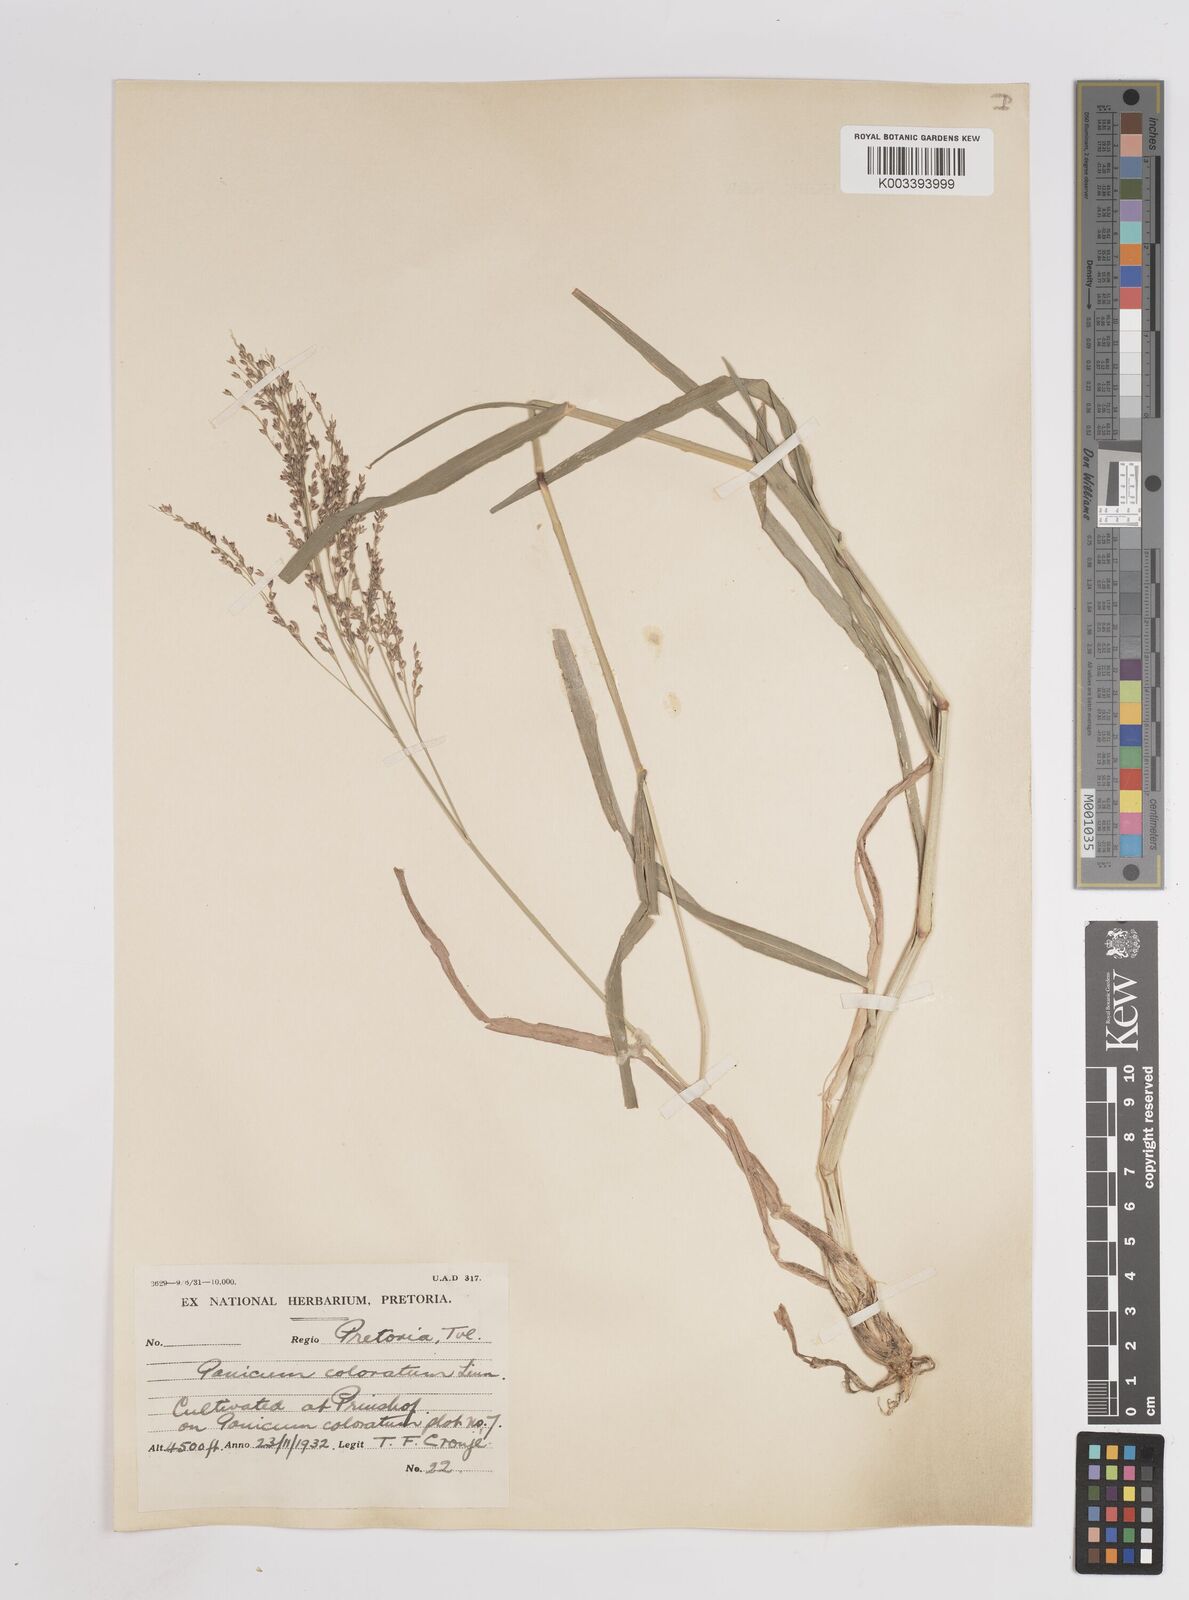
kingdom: Plantae
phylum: Tracheophyta
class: Liliopsida
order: Poales
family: Poaceae
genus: Panicum
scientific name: Panicum coloratum
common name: Kleingrass
